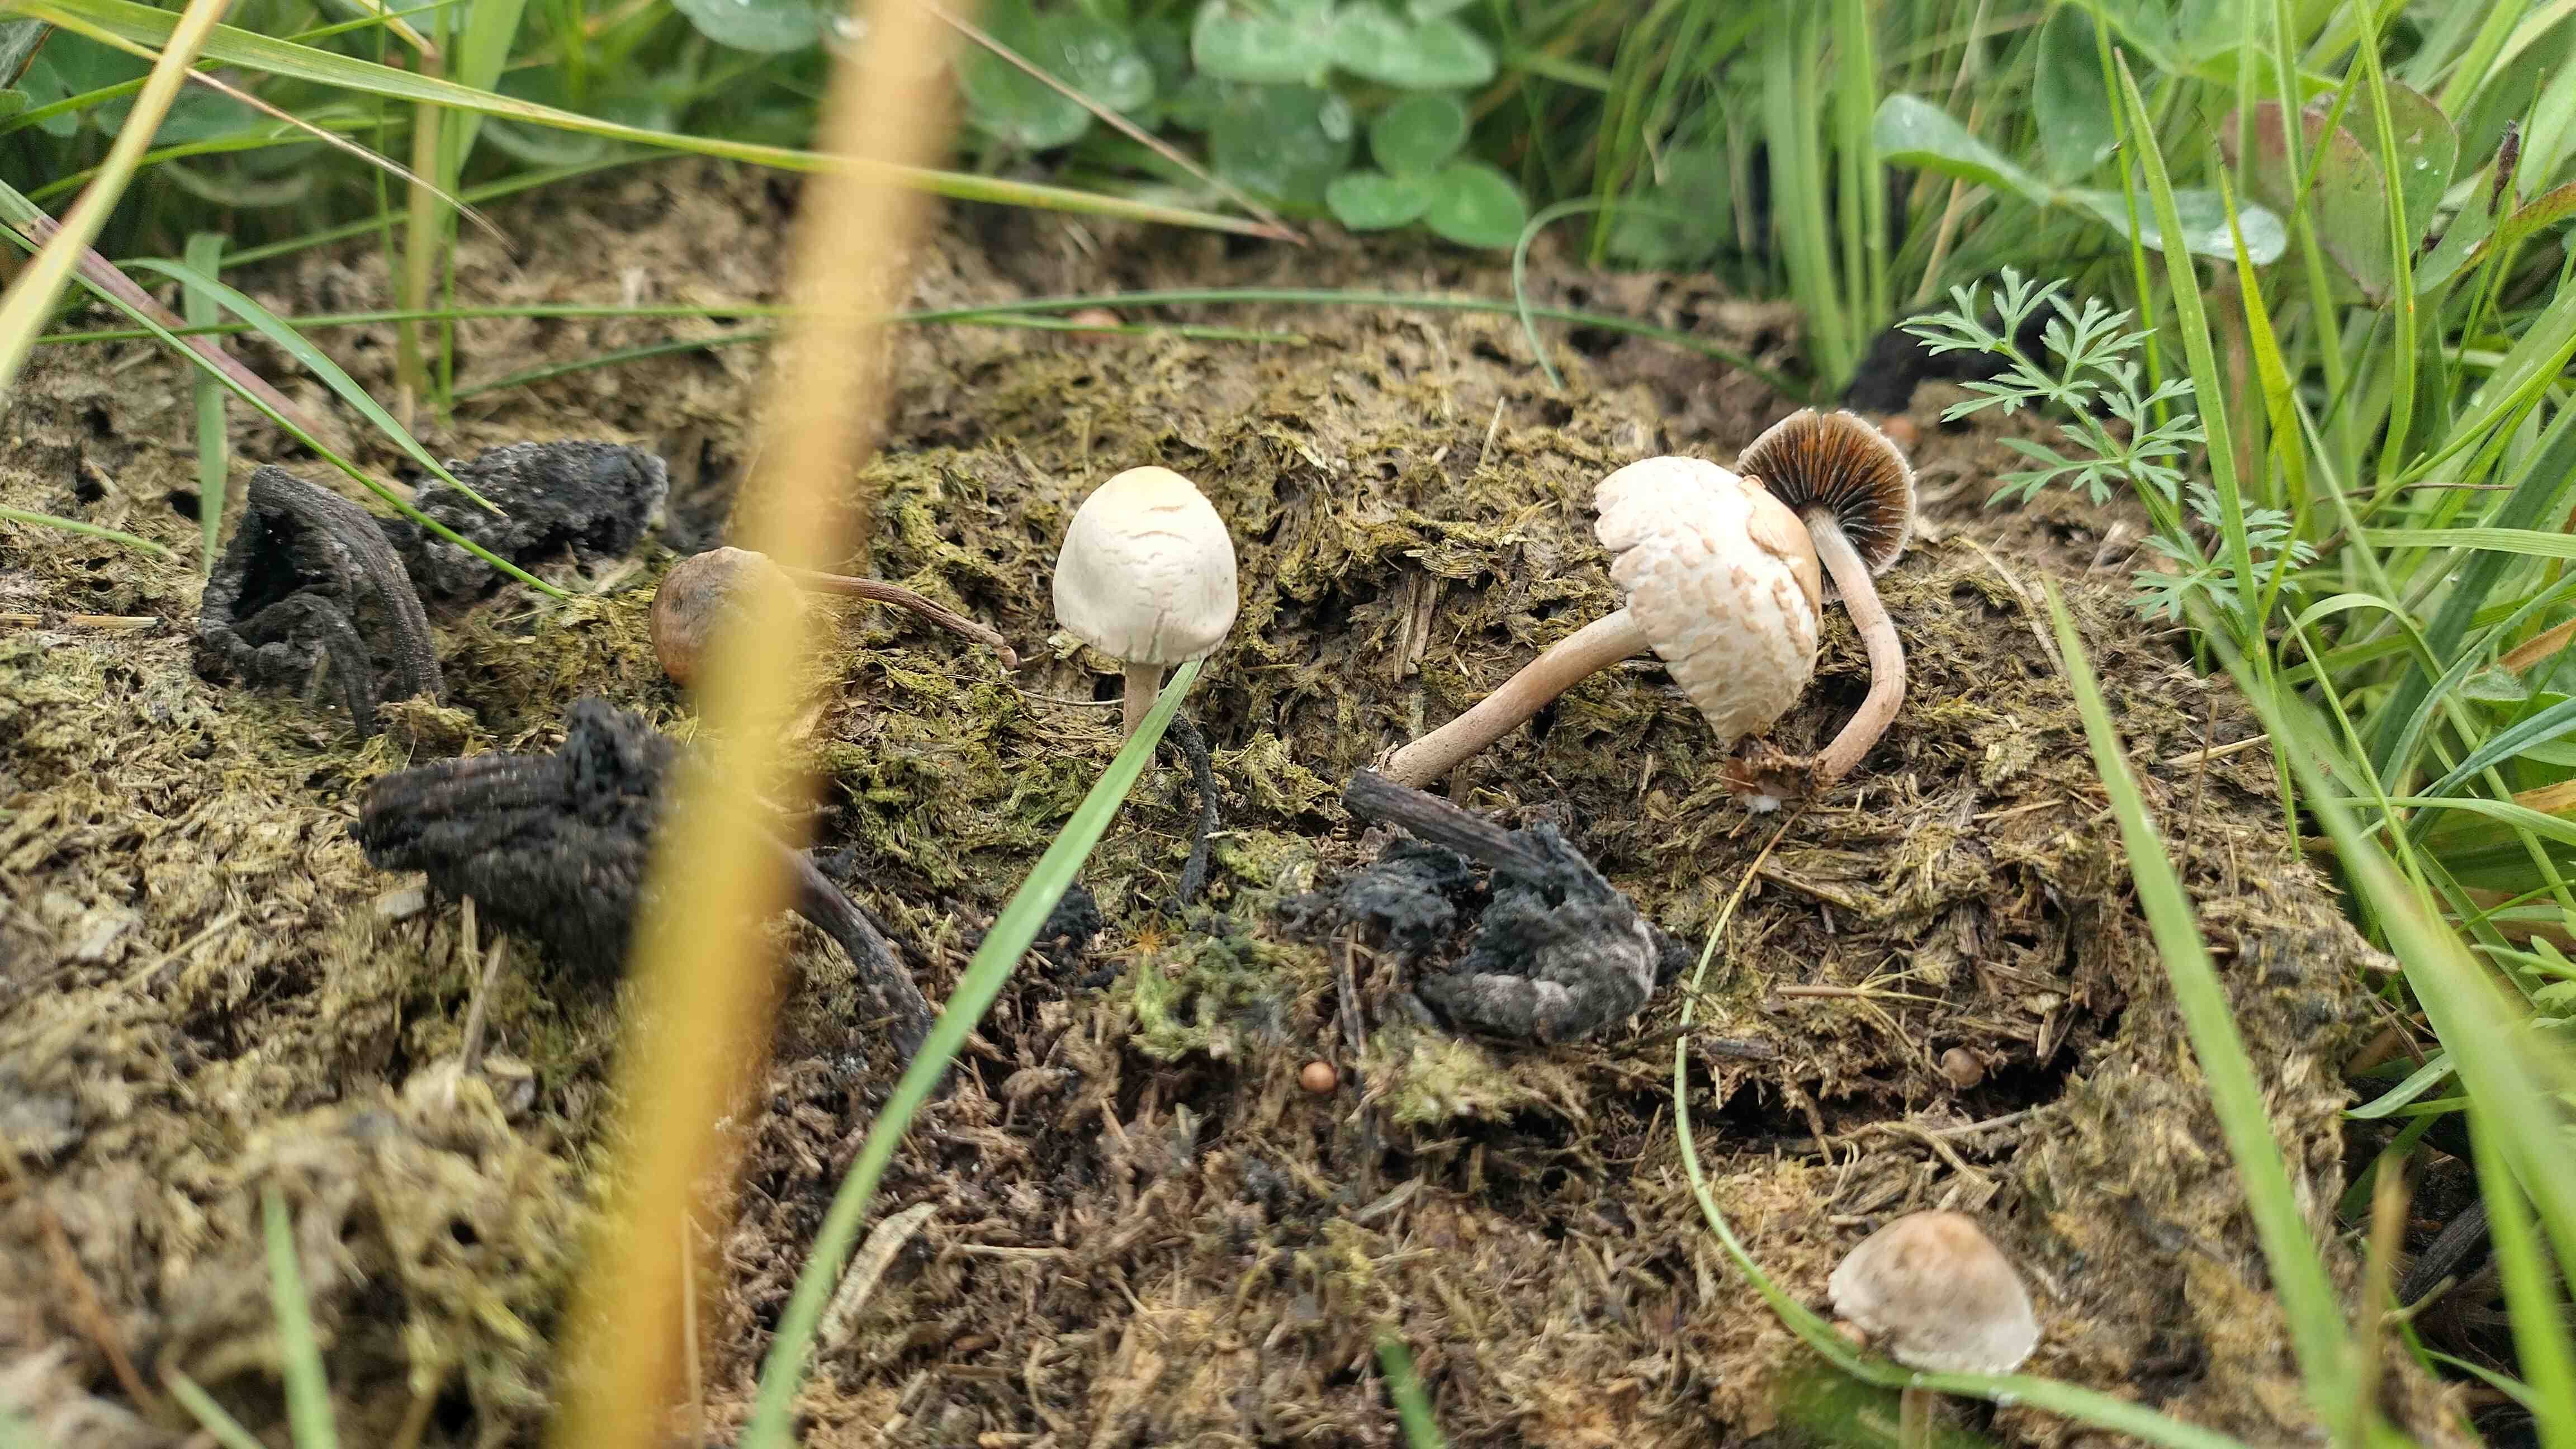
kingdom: Fungi
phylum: Basidiomycota
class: Agaricomycetes
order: Agaricales
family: Bolbitiaceae
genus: Panaeolus
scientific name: Panaeolus
